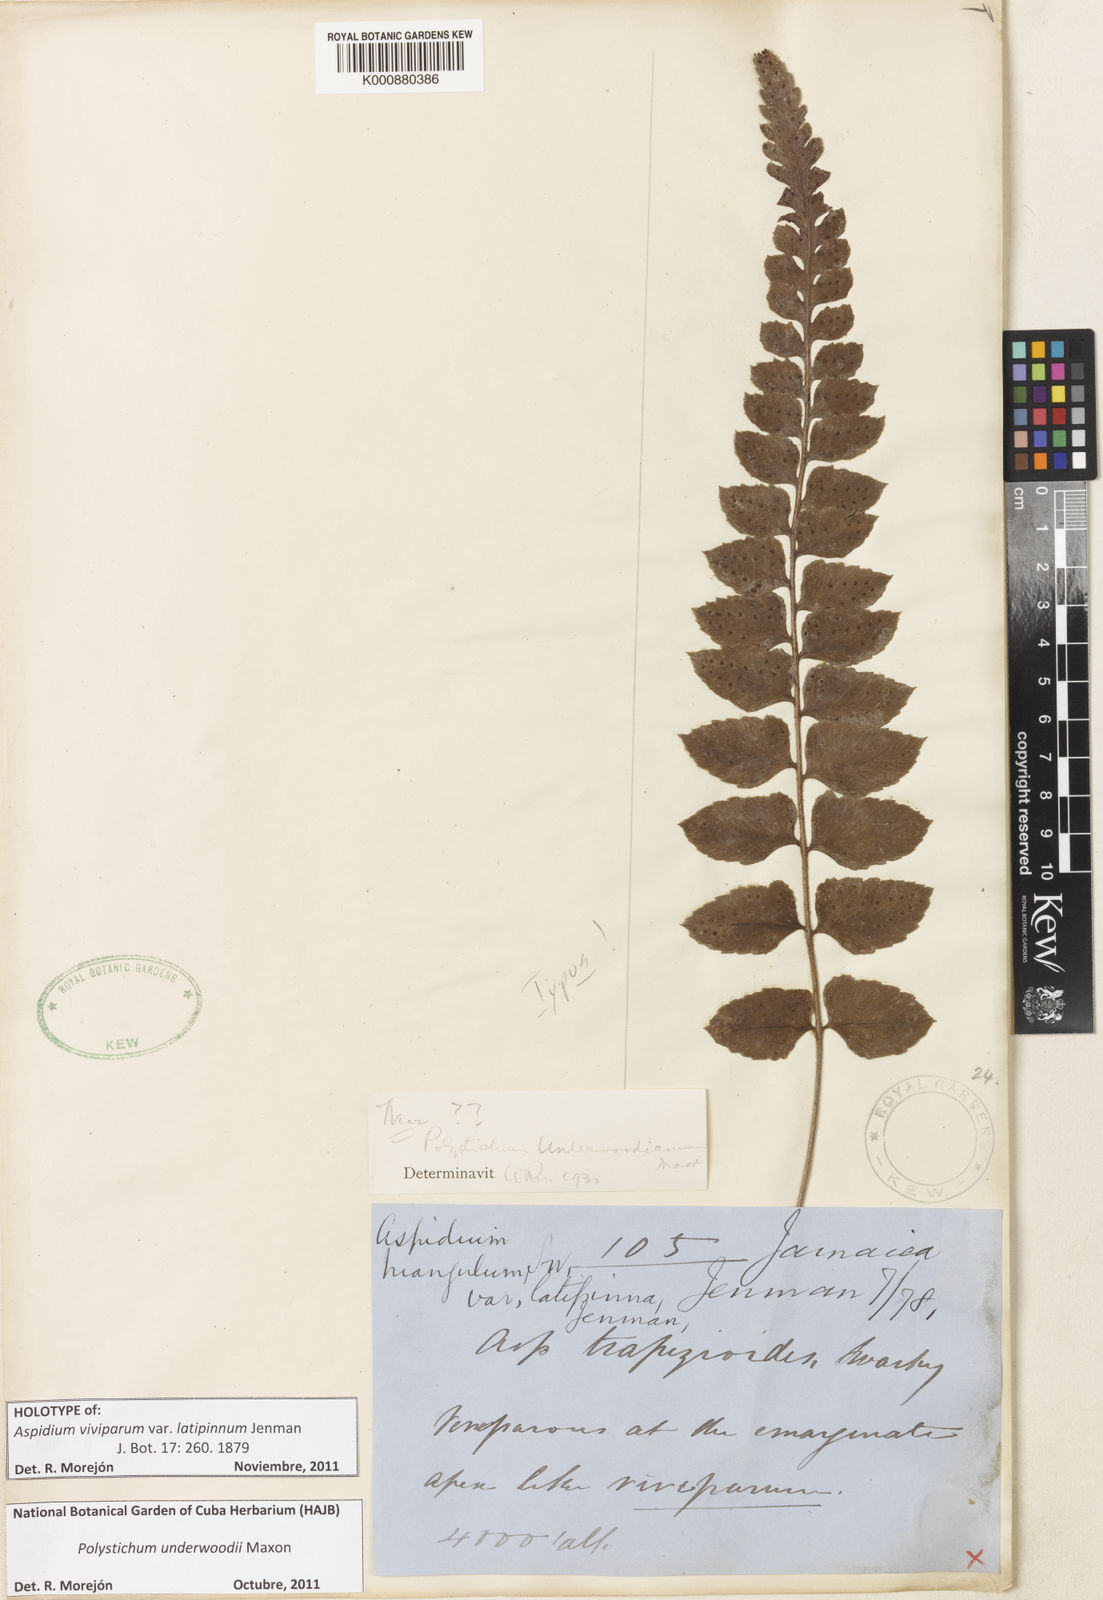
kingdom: Plantae
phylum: Tracheophyta
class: Polypodiopsida
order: Polypodiales
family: Dryopteridaceae
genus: Polystichum
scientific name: Polystichum underwoodii
